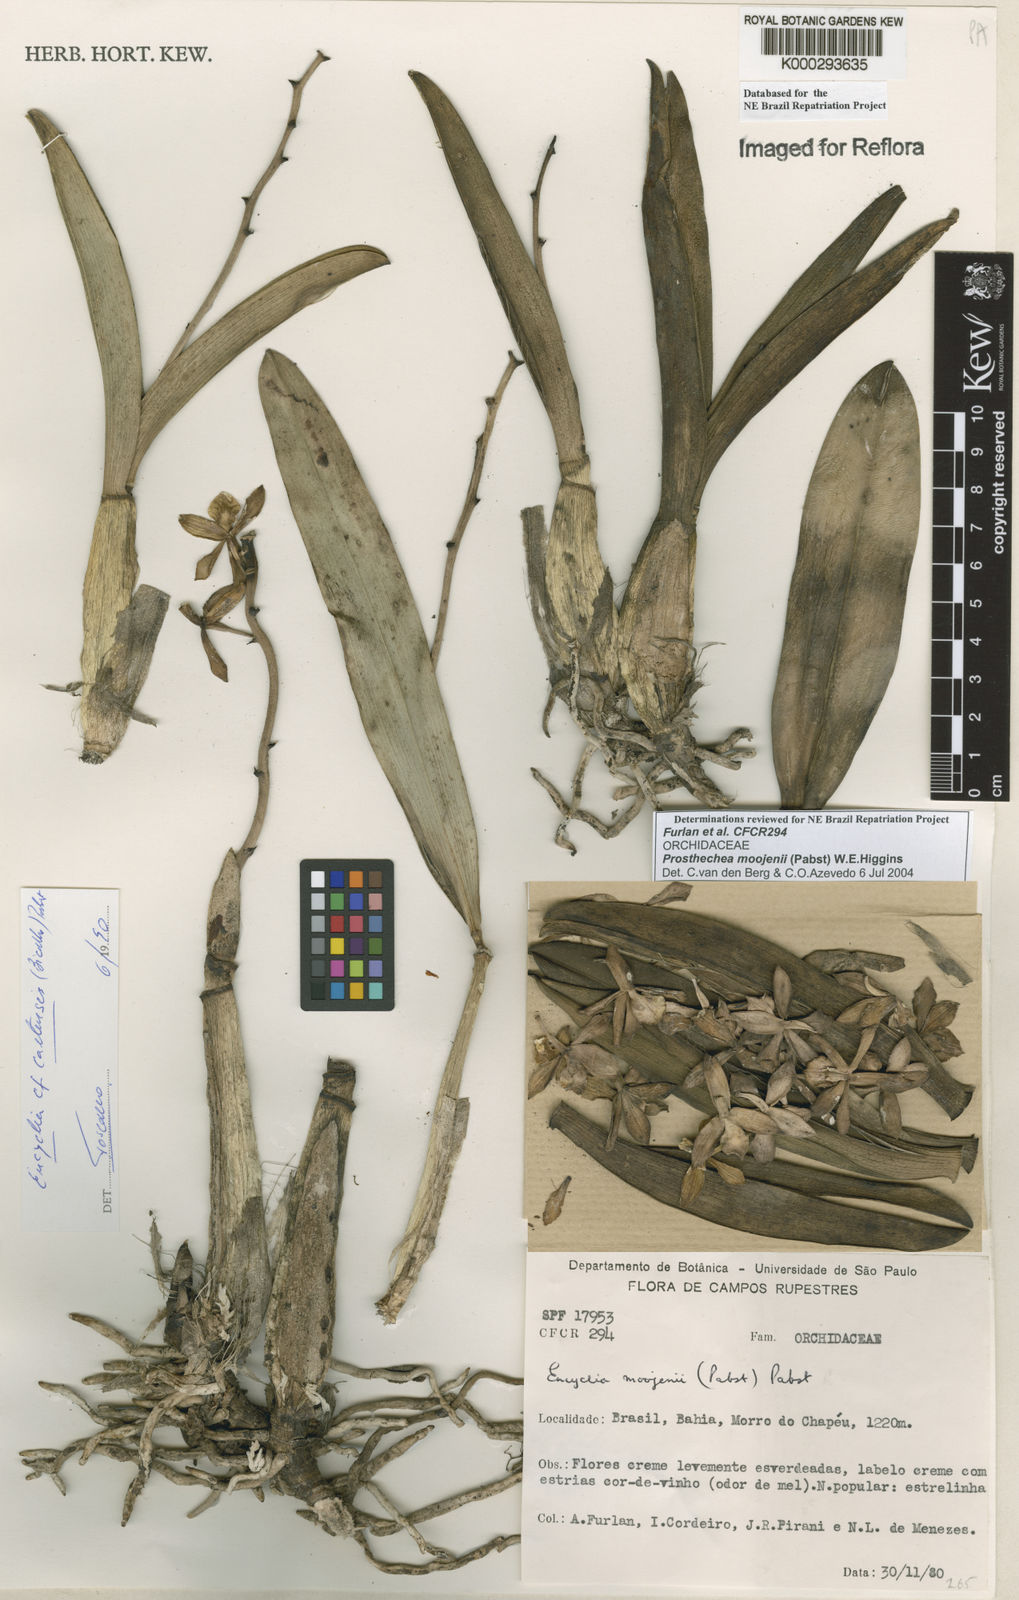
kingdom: Plantae
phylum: Tracheophyta
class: Liliopsida
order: Asparagales
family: Orchidaceae
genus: Prosthechea
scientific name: Prosthechea moojenii
